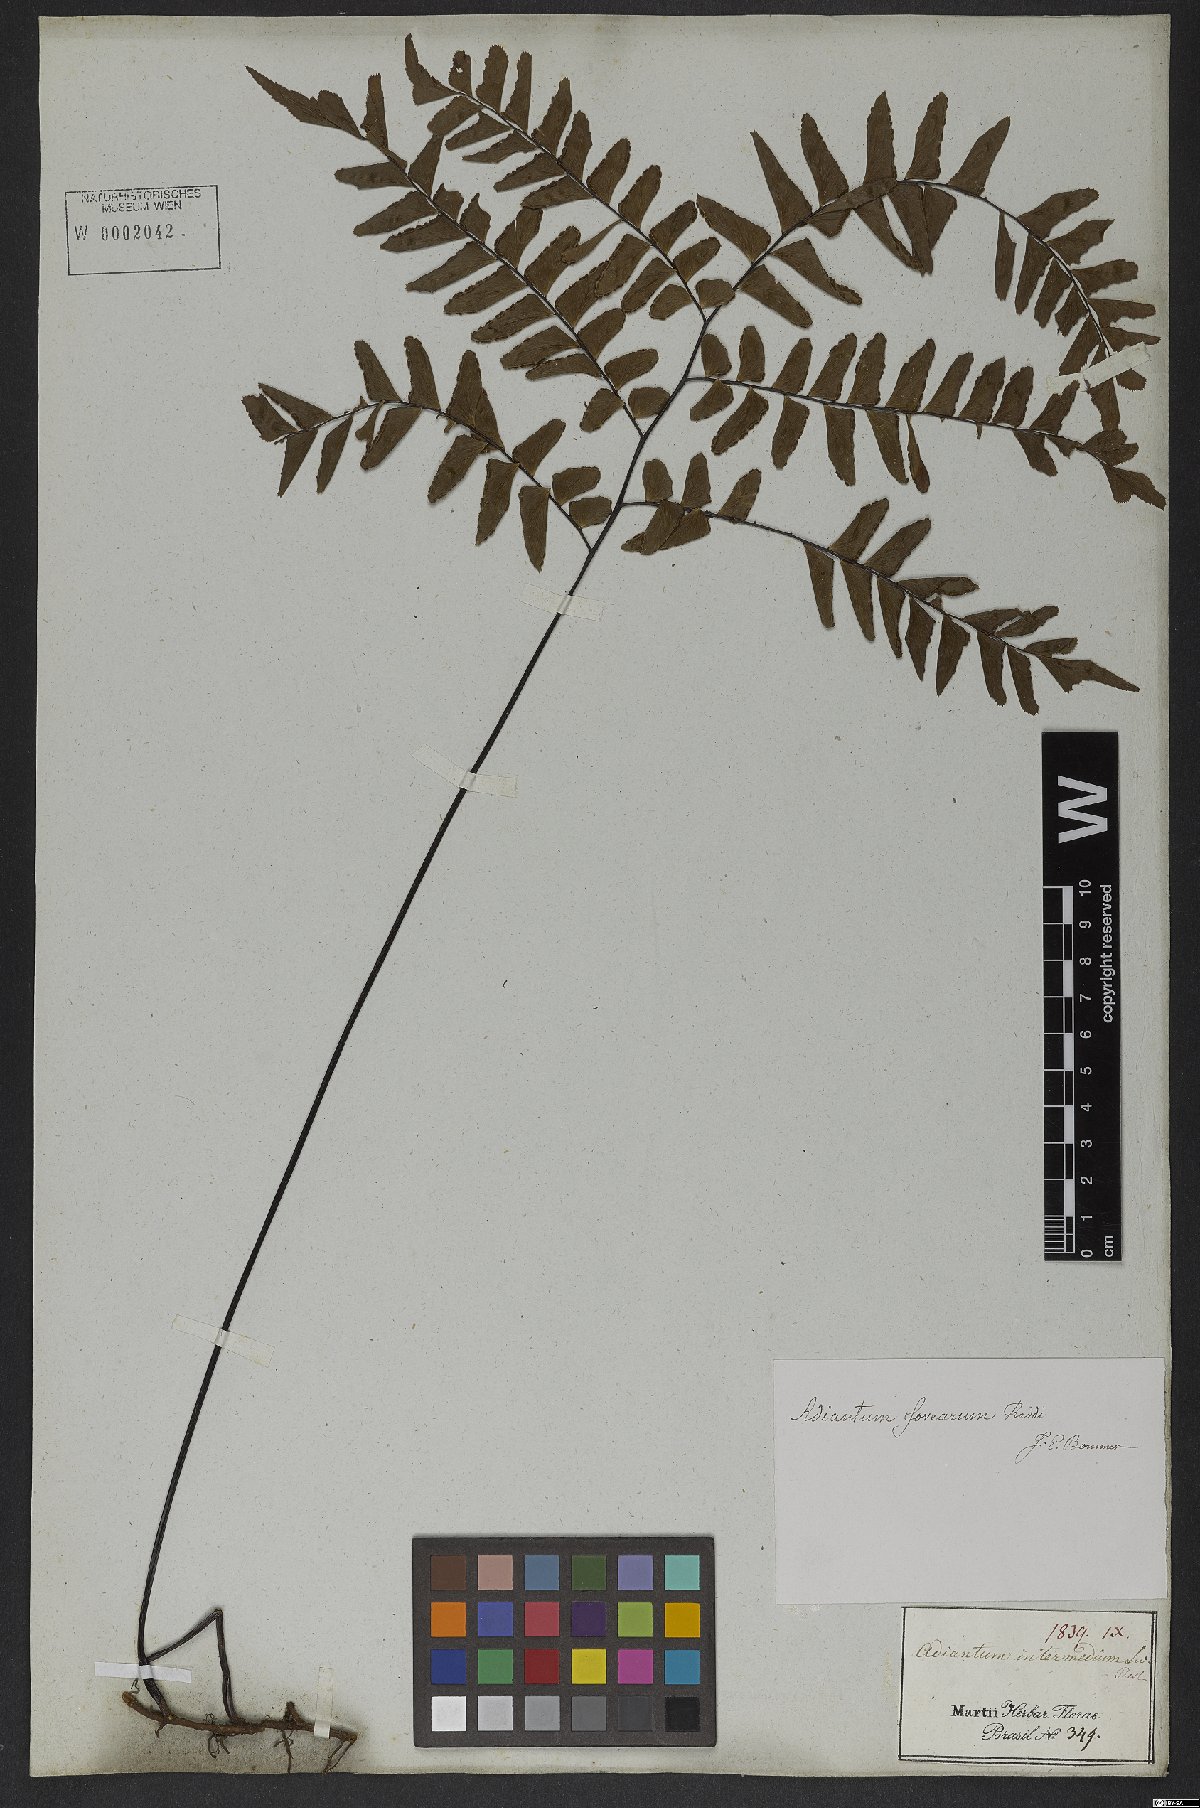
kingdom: Plantae
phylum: Tracheophyta
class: Polypodiopsida
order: Polypodiales
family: Pteridaceae
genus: Adiantum
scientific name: Adiantum latifolium
